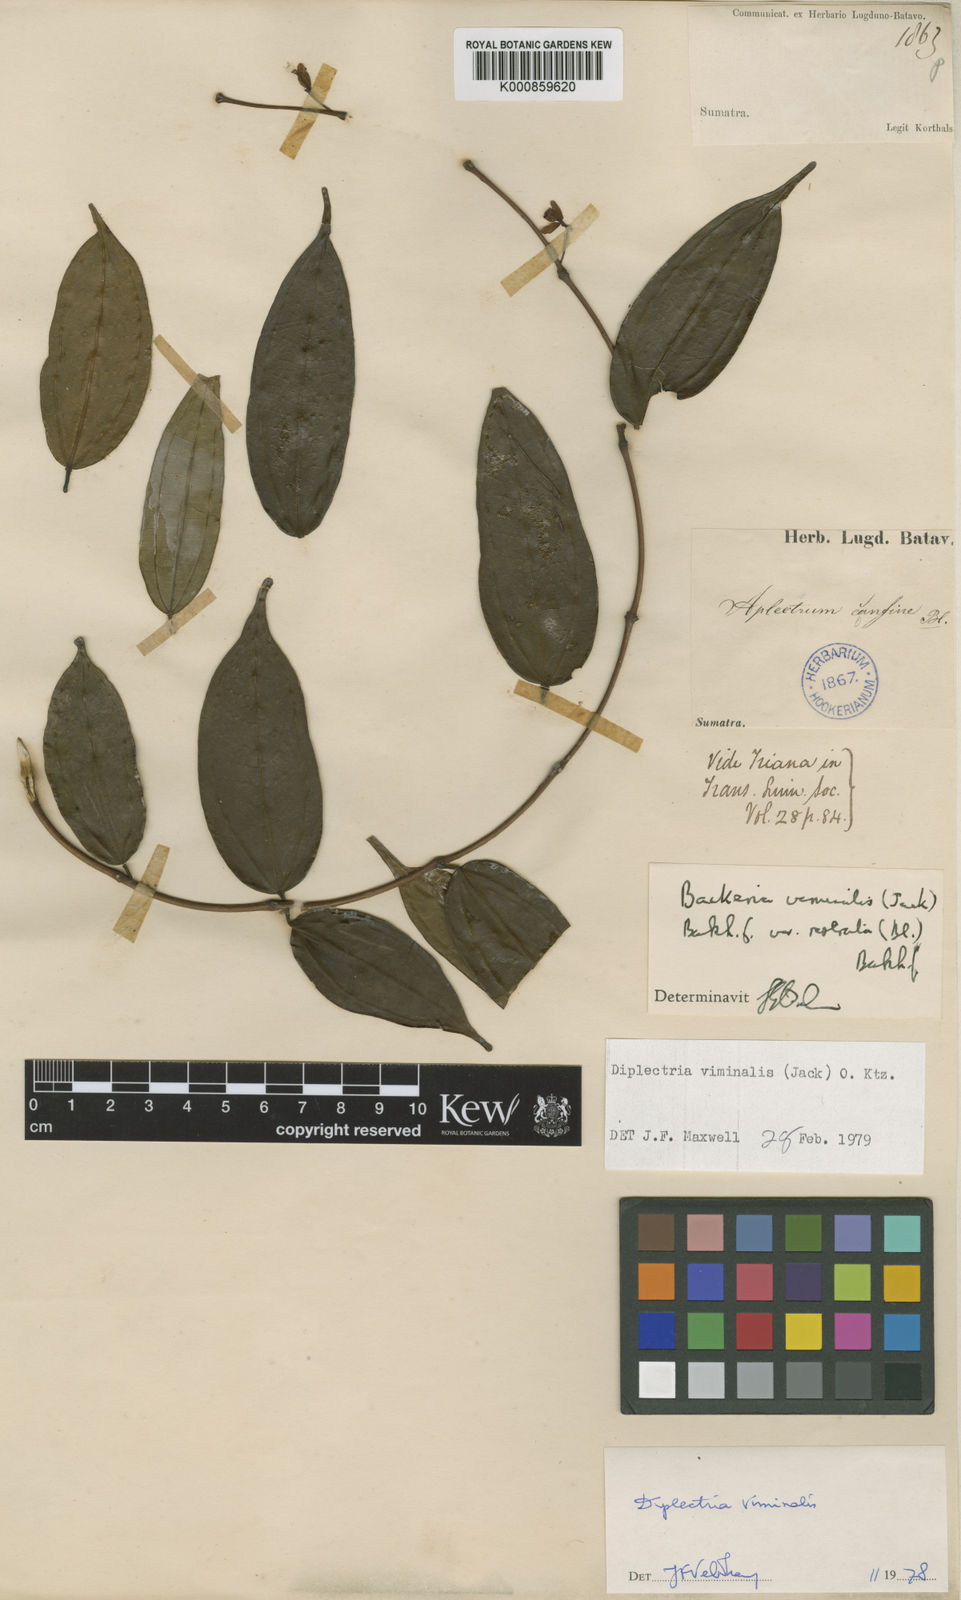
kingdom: Plantae
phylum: Tracheophyta
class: Magnoliopsida
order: Myrtales
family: Melastomataceae
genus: Diplectria
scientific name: Diplectria viminalis
